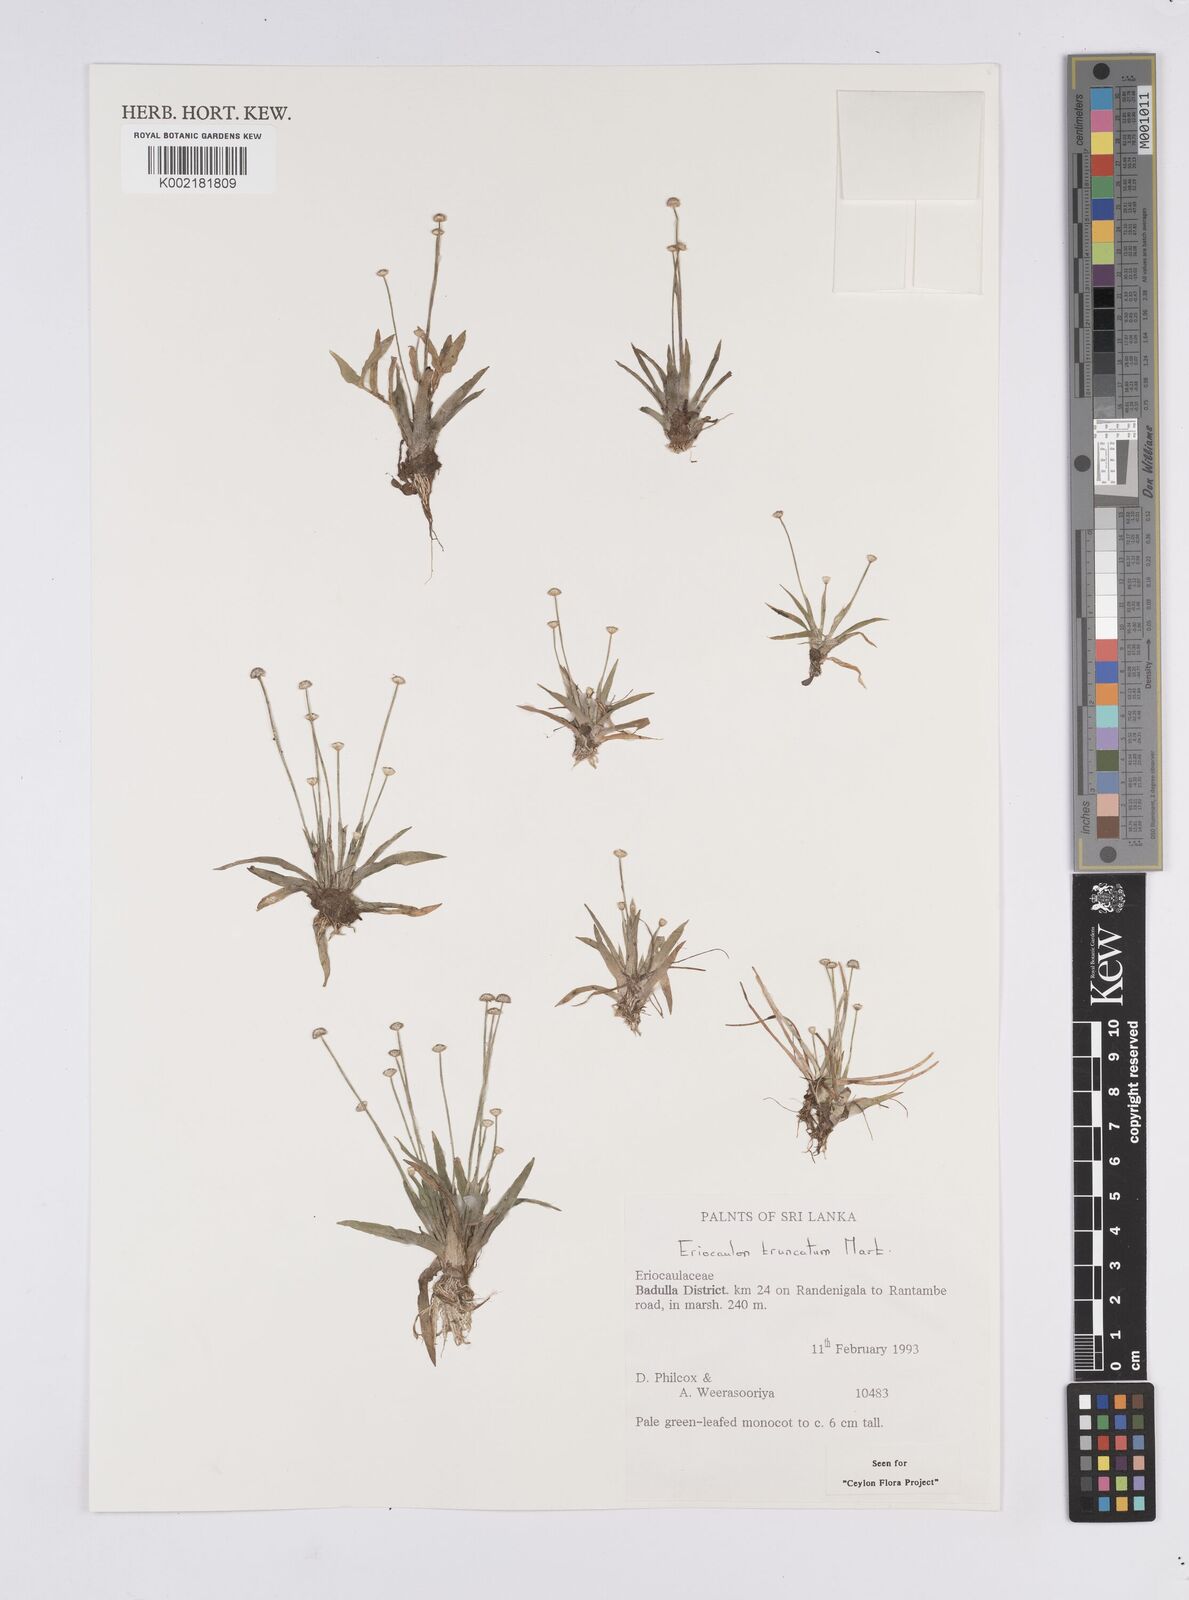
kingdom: Plantae
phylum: Tracheophyta
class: Liliopsida
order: Poales
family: Eriocaulaceae
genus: Eriocaulon
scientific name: Eriocaulon truncatum
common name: Short pipe-wort
